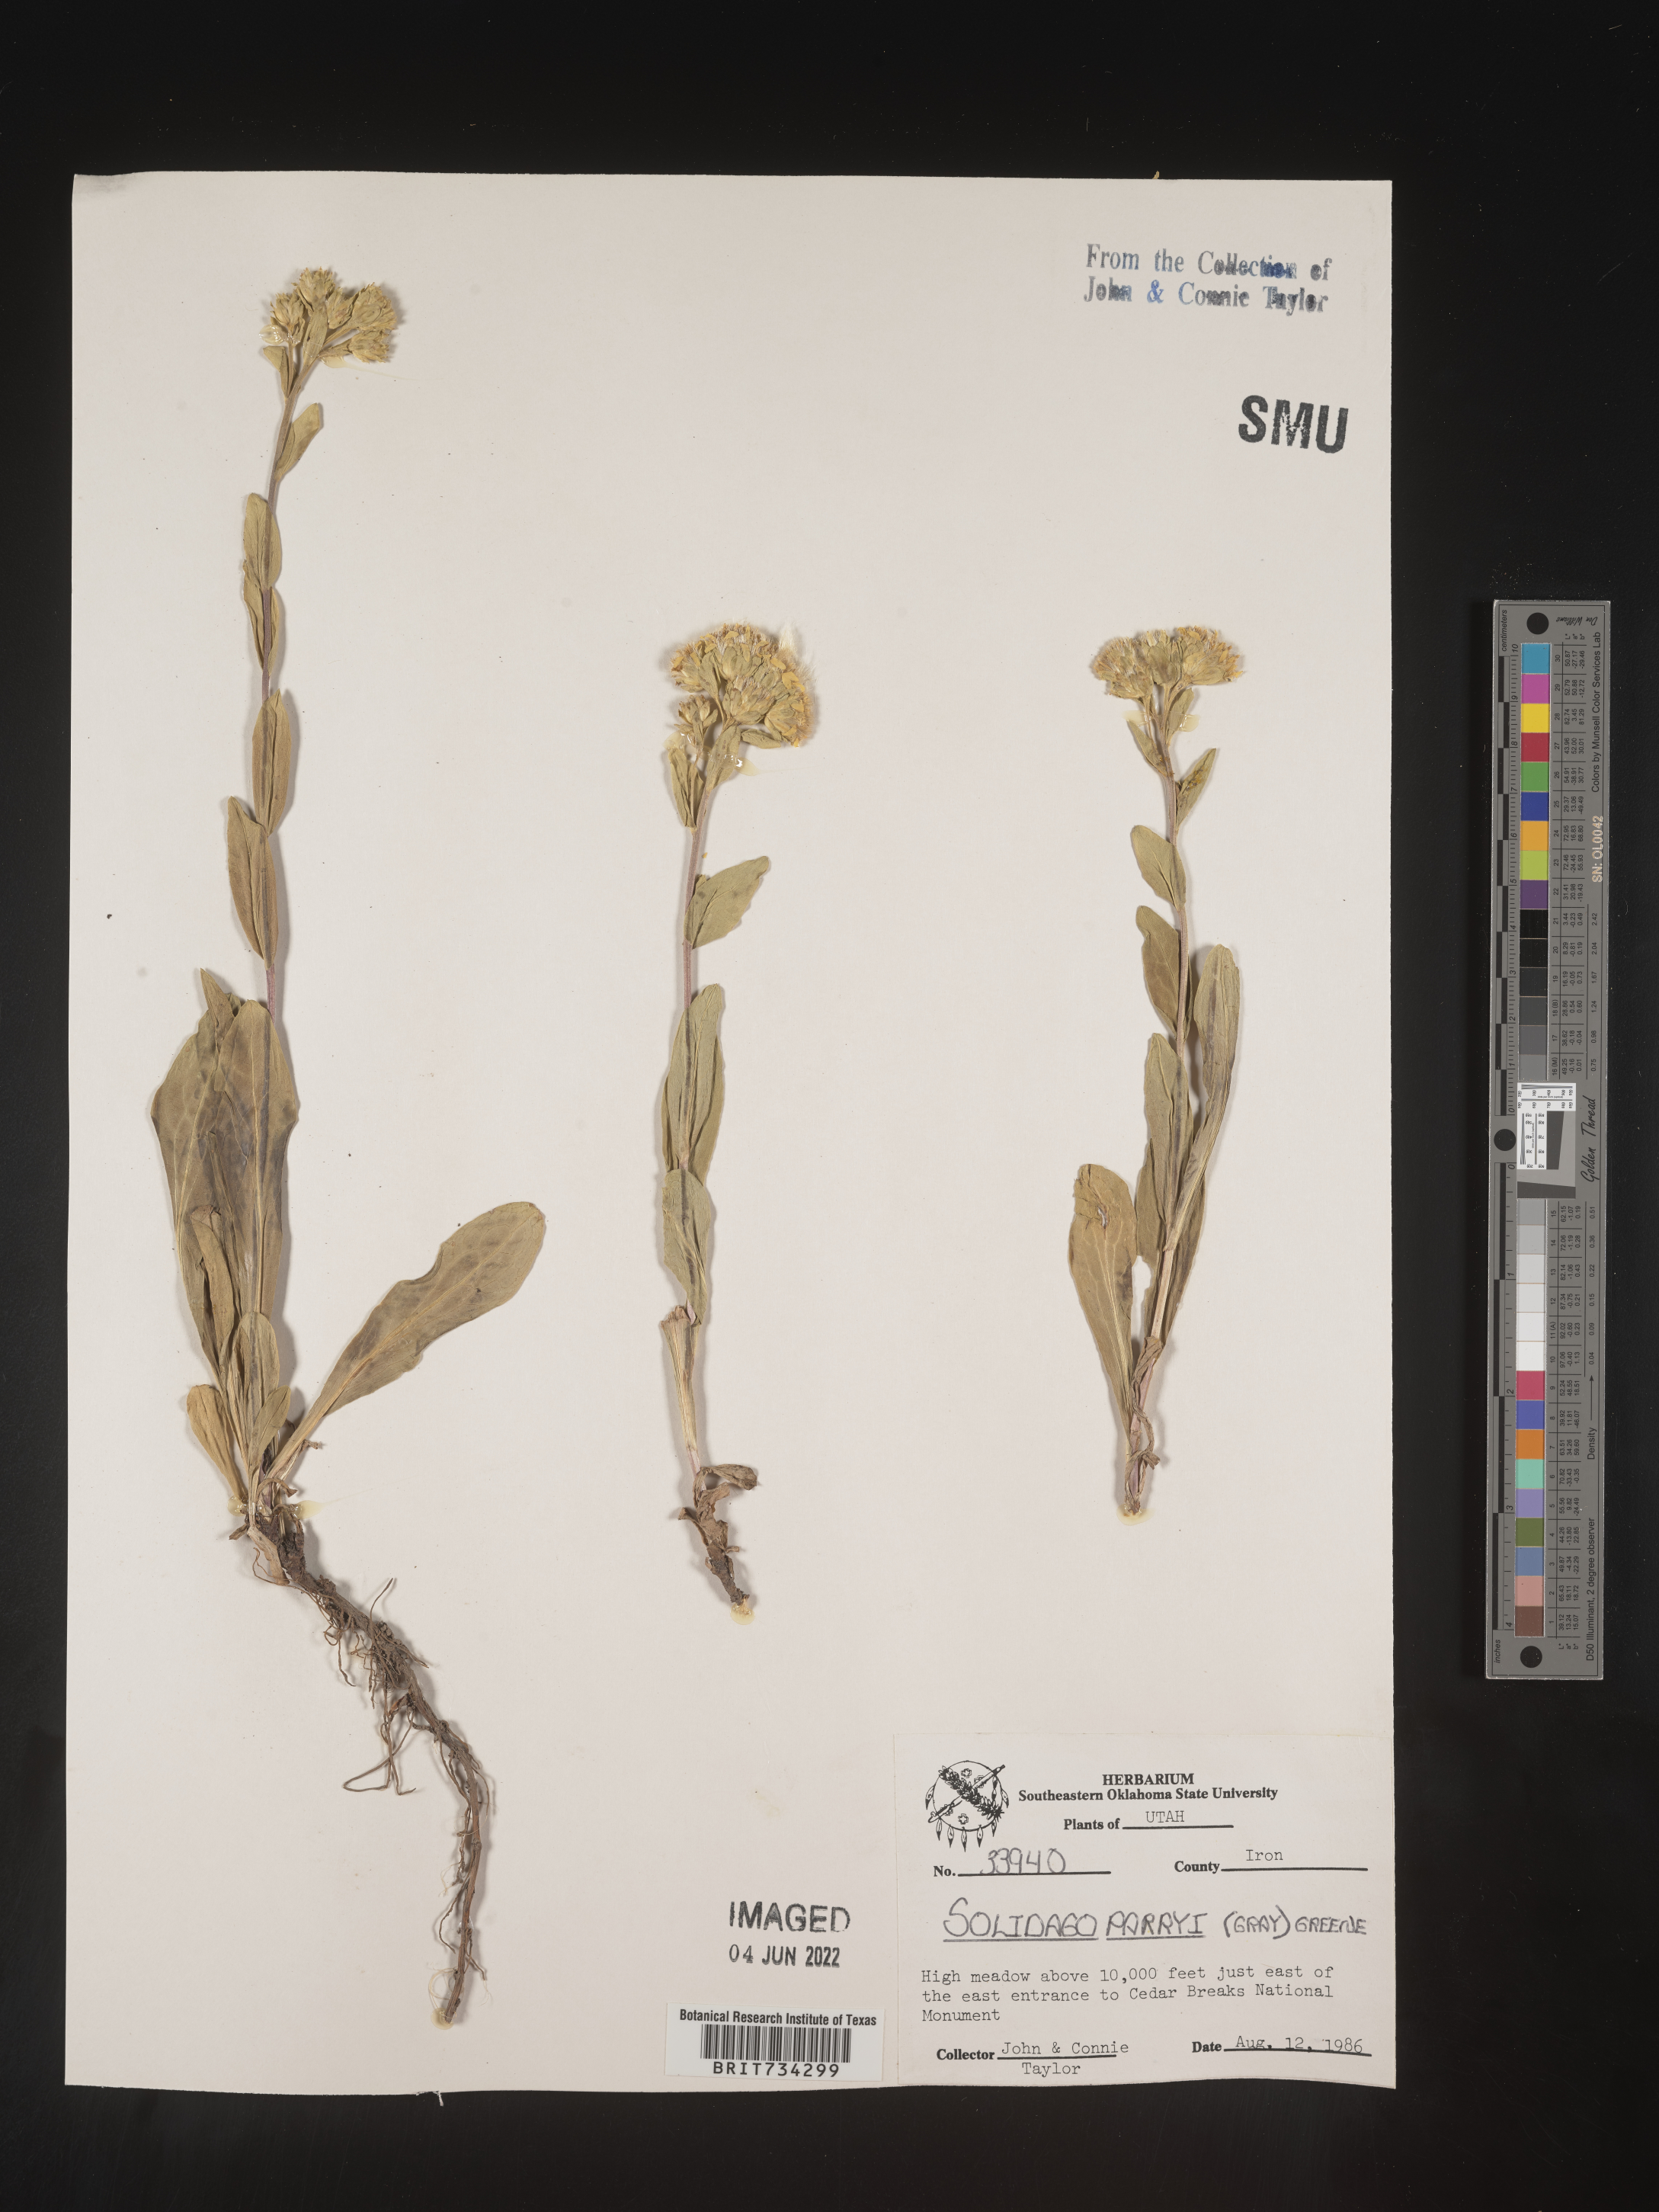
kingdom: Plantae
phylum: Tracheophyta
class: Magnoliopsida
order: Asterales
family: Asteraceae
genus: Oreochrysum
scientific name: Oreochrysum parryi
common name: Parry's goldenweed
